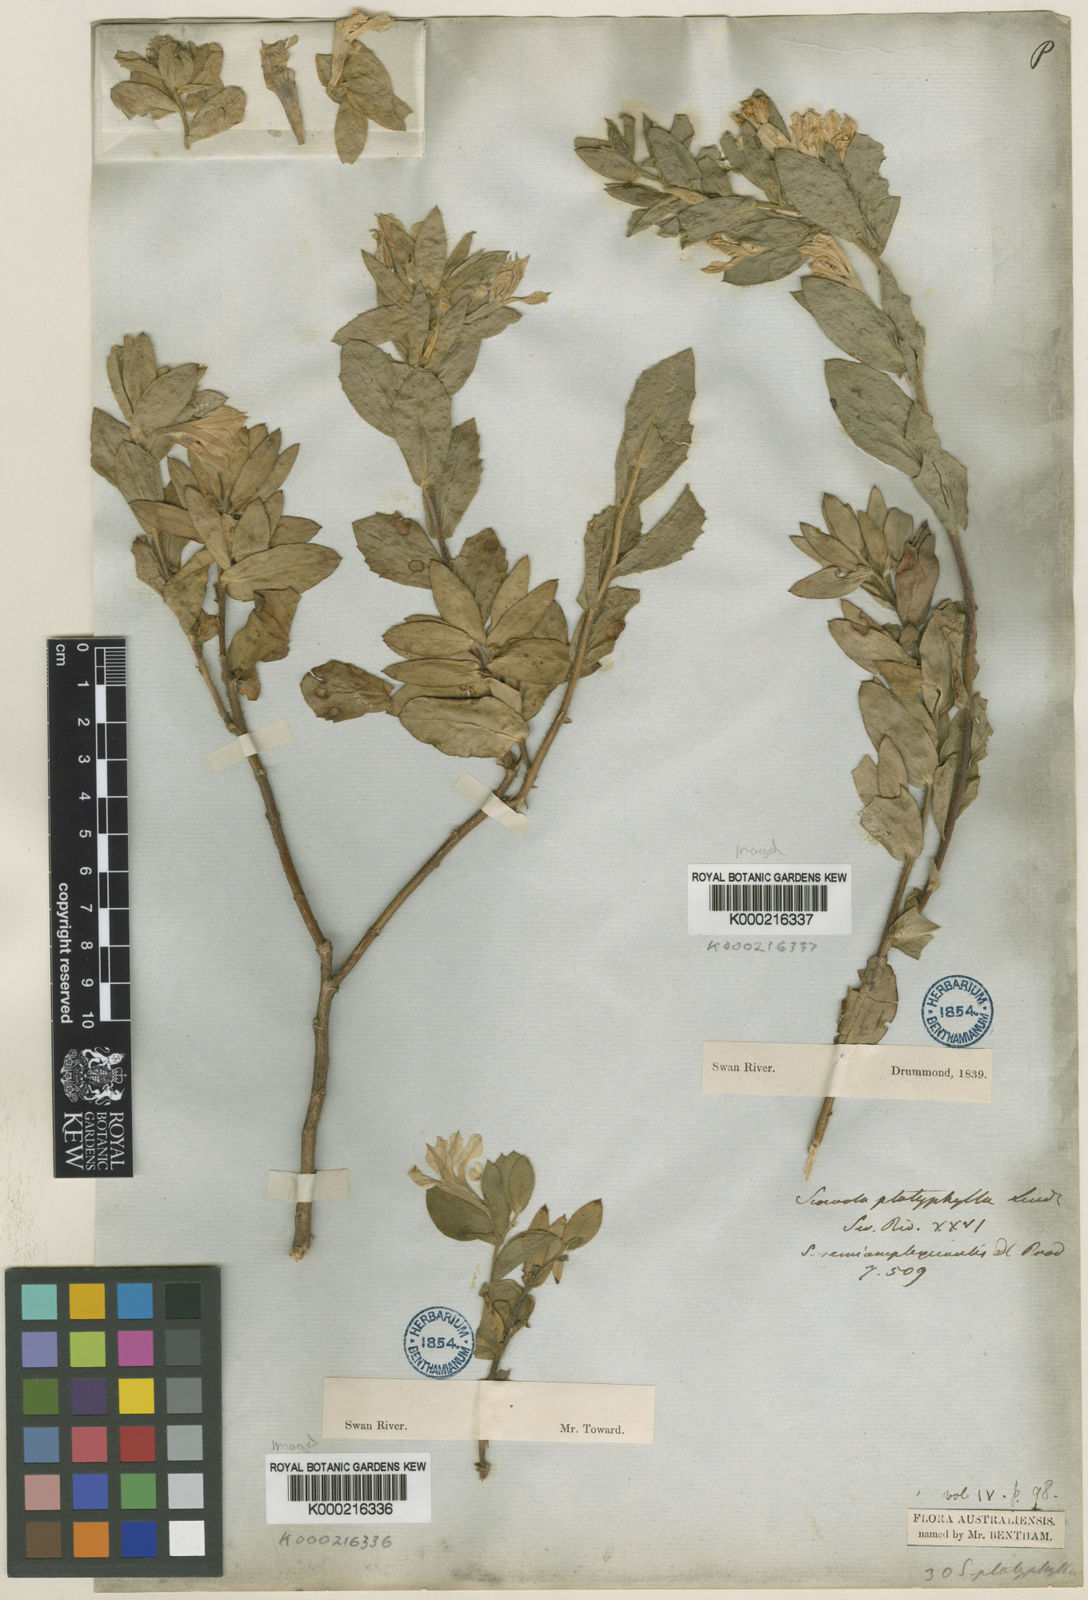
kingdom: Plantae
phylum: Tracheophyta
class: Magnoliopsida
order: Asterales
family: Goodeniaceae
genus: Scaevola
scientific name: Scaevola platyphylla
